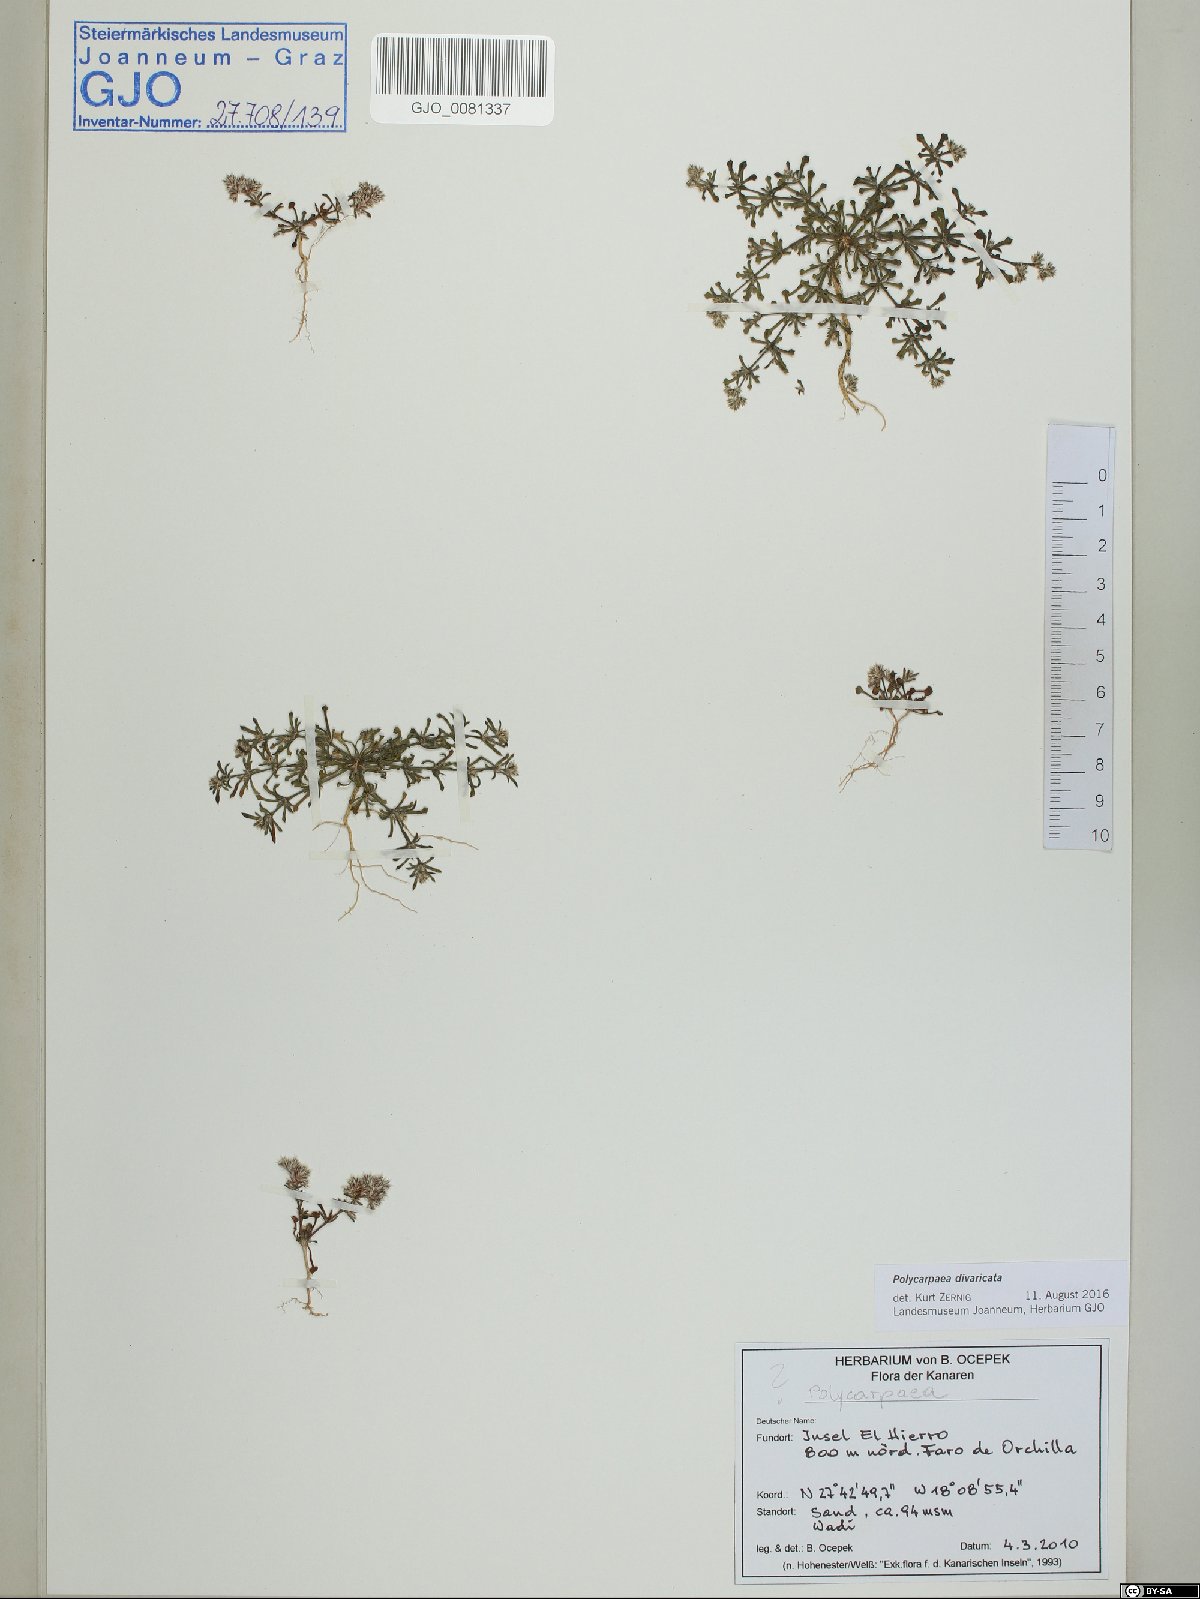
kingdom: Plantae
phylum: Tracheophyta
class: Magnoliopsida
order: Caryophyllales
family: Caryophyllaceae
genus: Polycarpaea
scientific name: Polycarpaea divaricata
